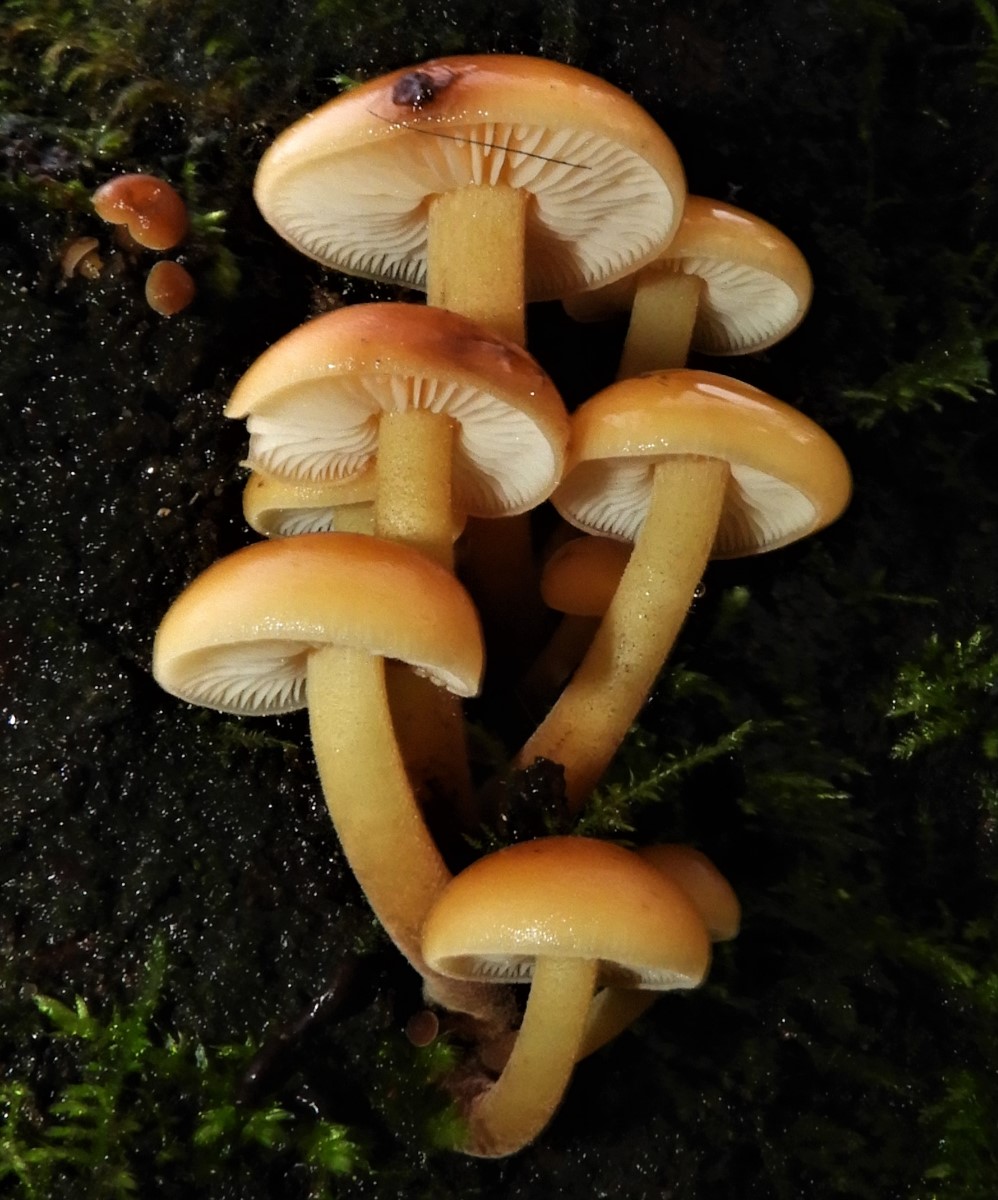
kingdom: Fungi
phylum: Basidiomycota
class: Agaricomycetes
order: Agaricales
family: Physalacriaceae
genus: Flammulina
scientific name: Flammulina velutipes
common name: gul fløjlsfod
